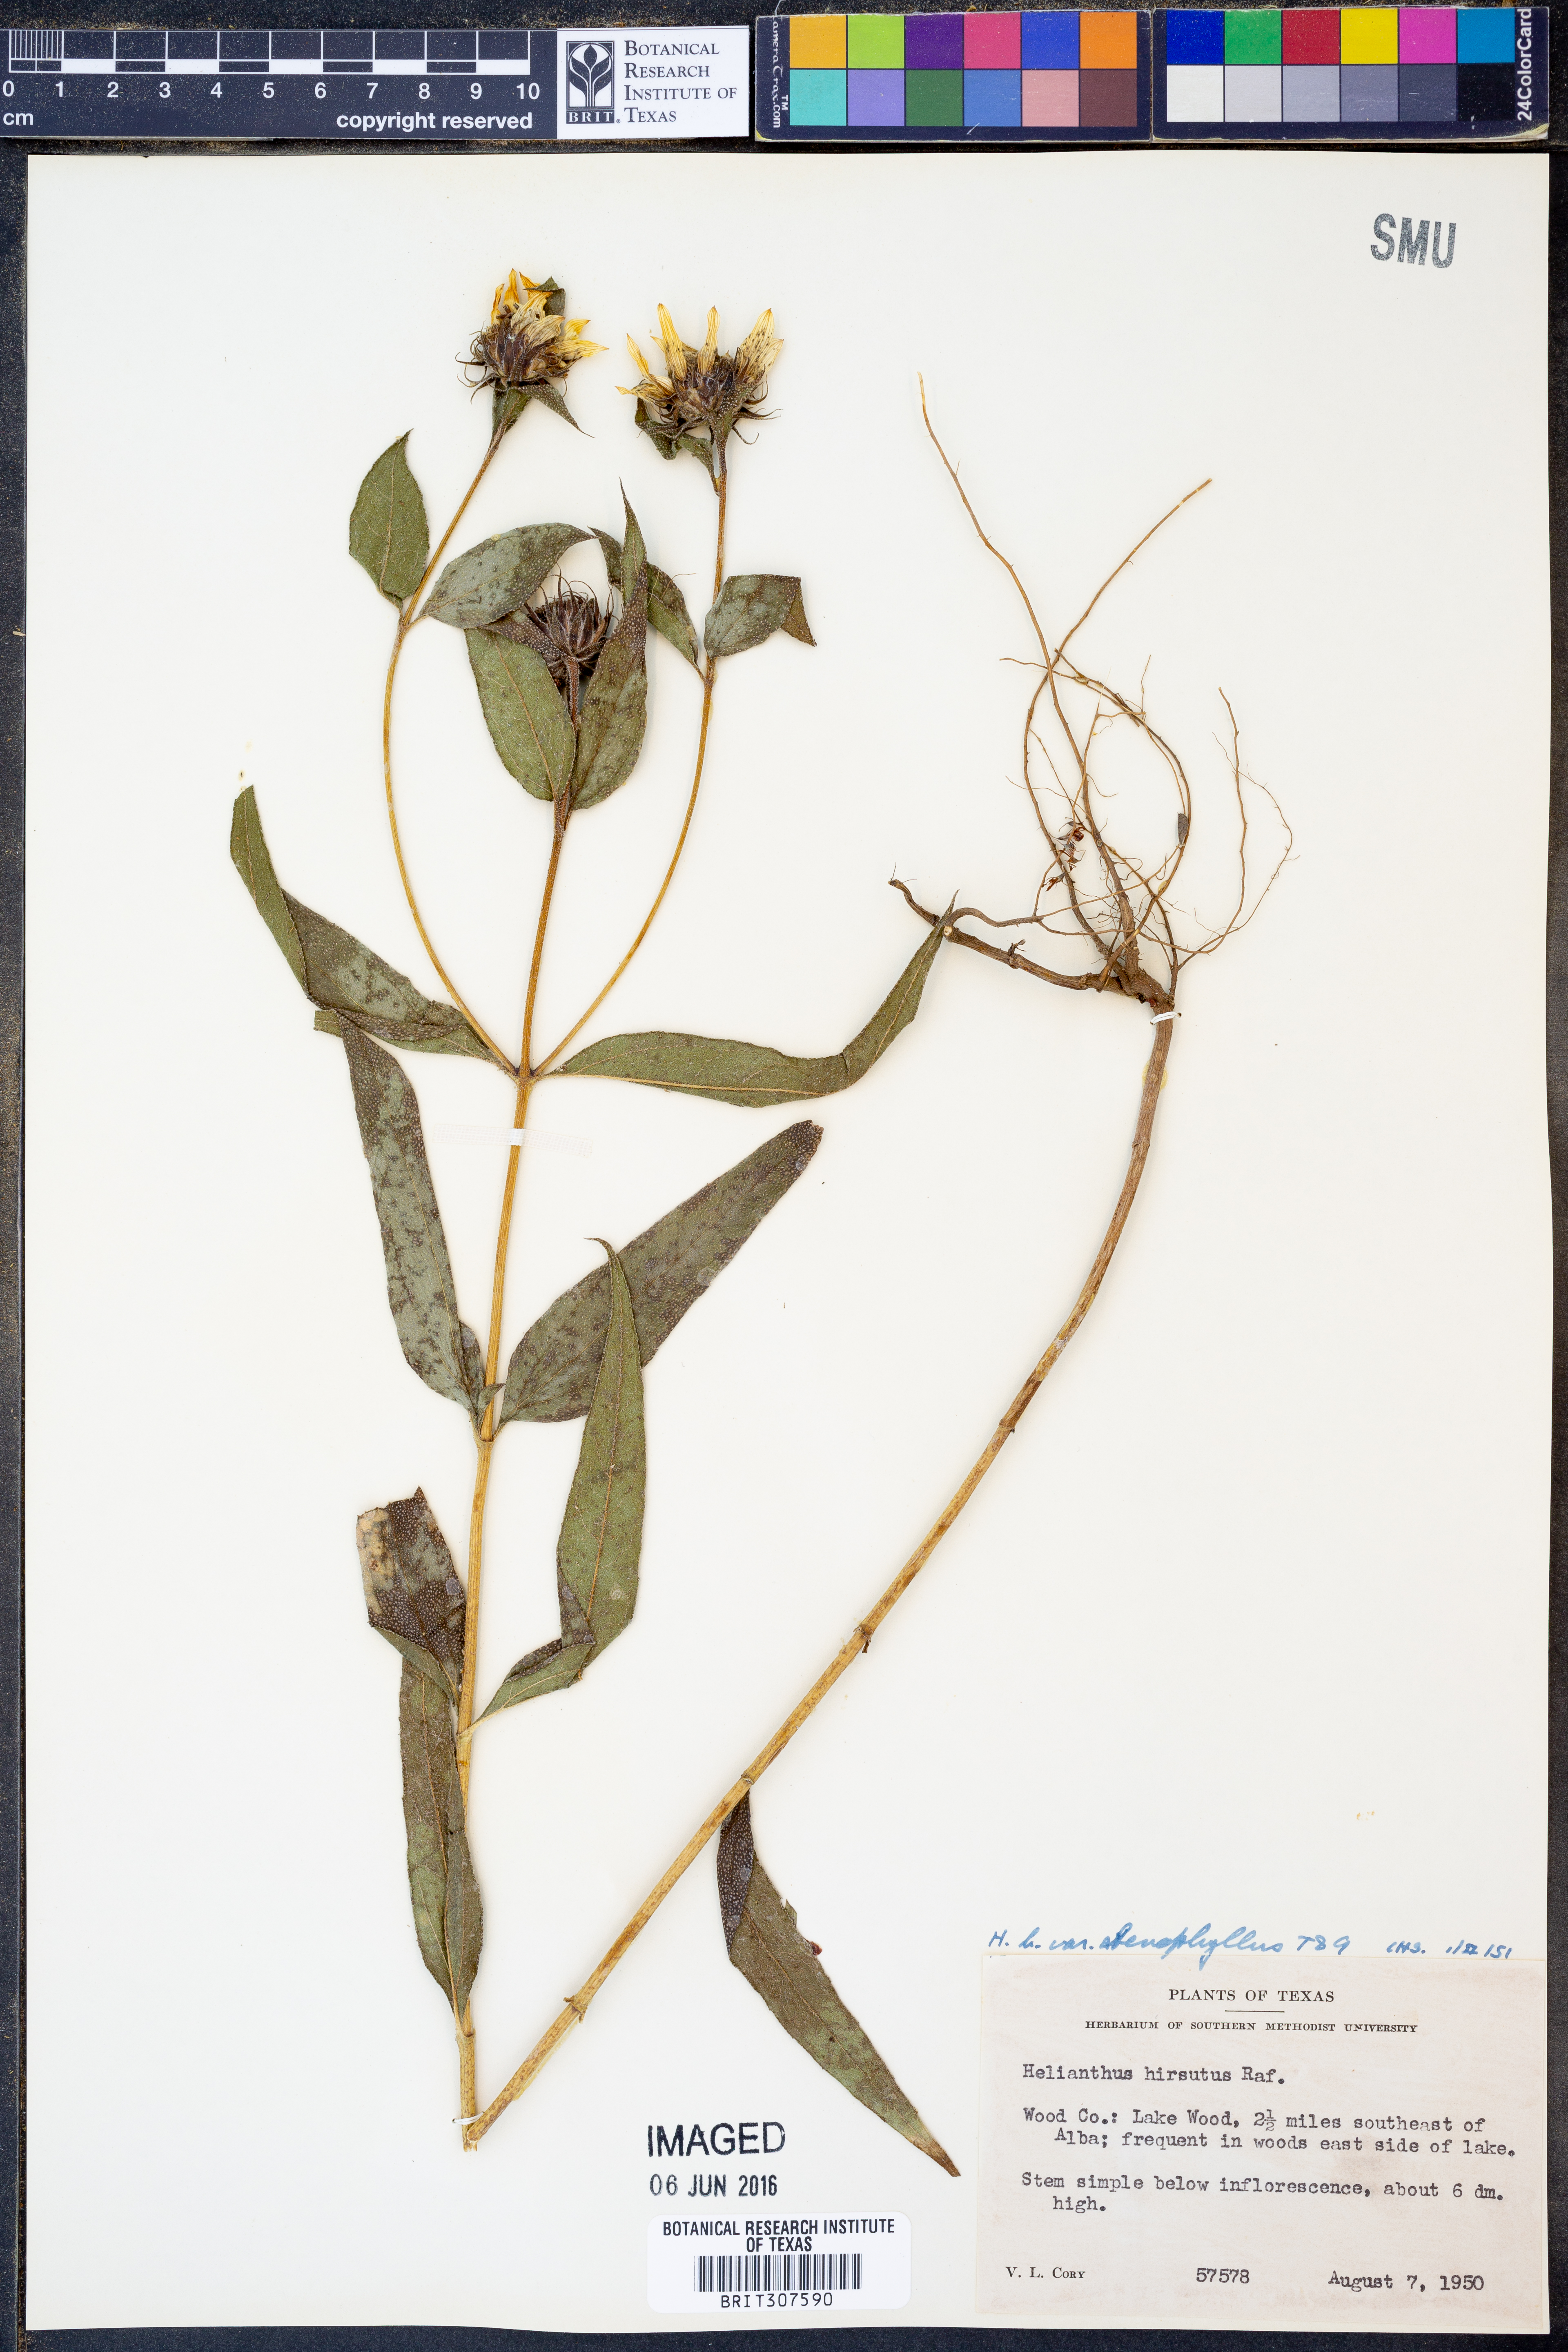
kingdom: Plantae
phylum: Tracheophyta
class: Magnoliopsida
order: Asterales
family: Asteraceae
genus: Helianthus
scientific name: Helianthus hirsutus
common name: Hairy sunflower
